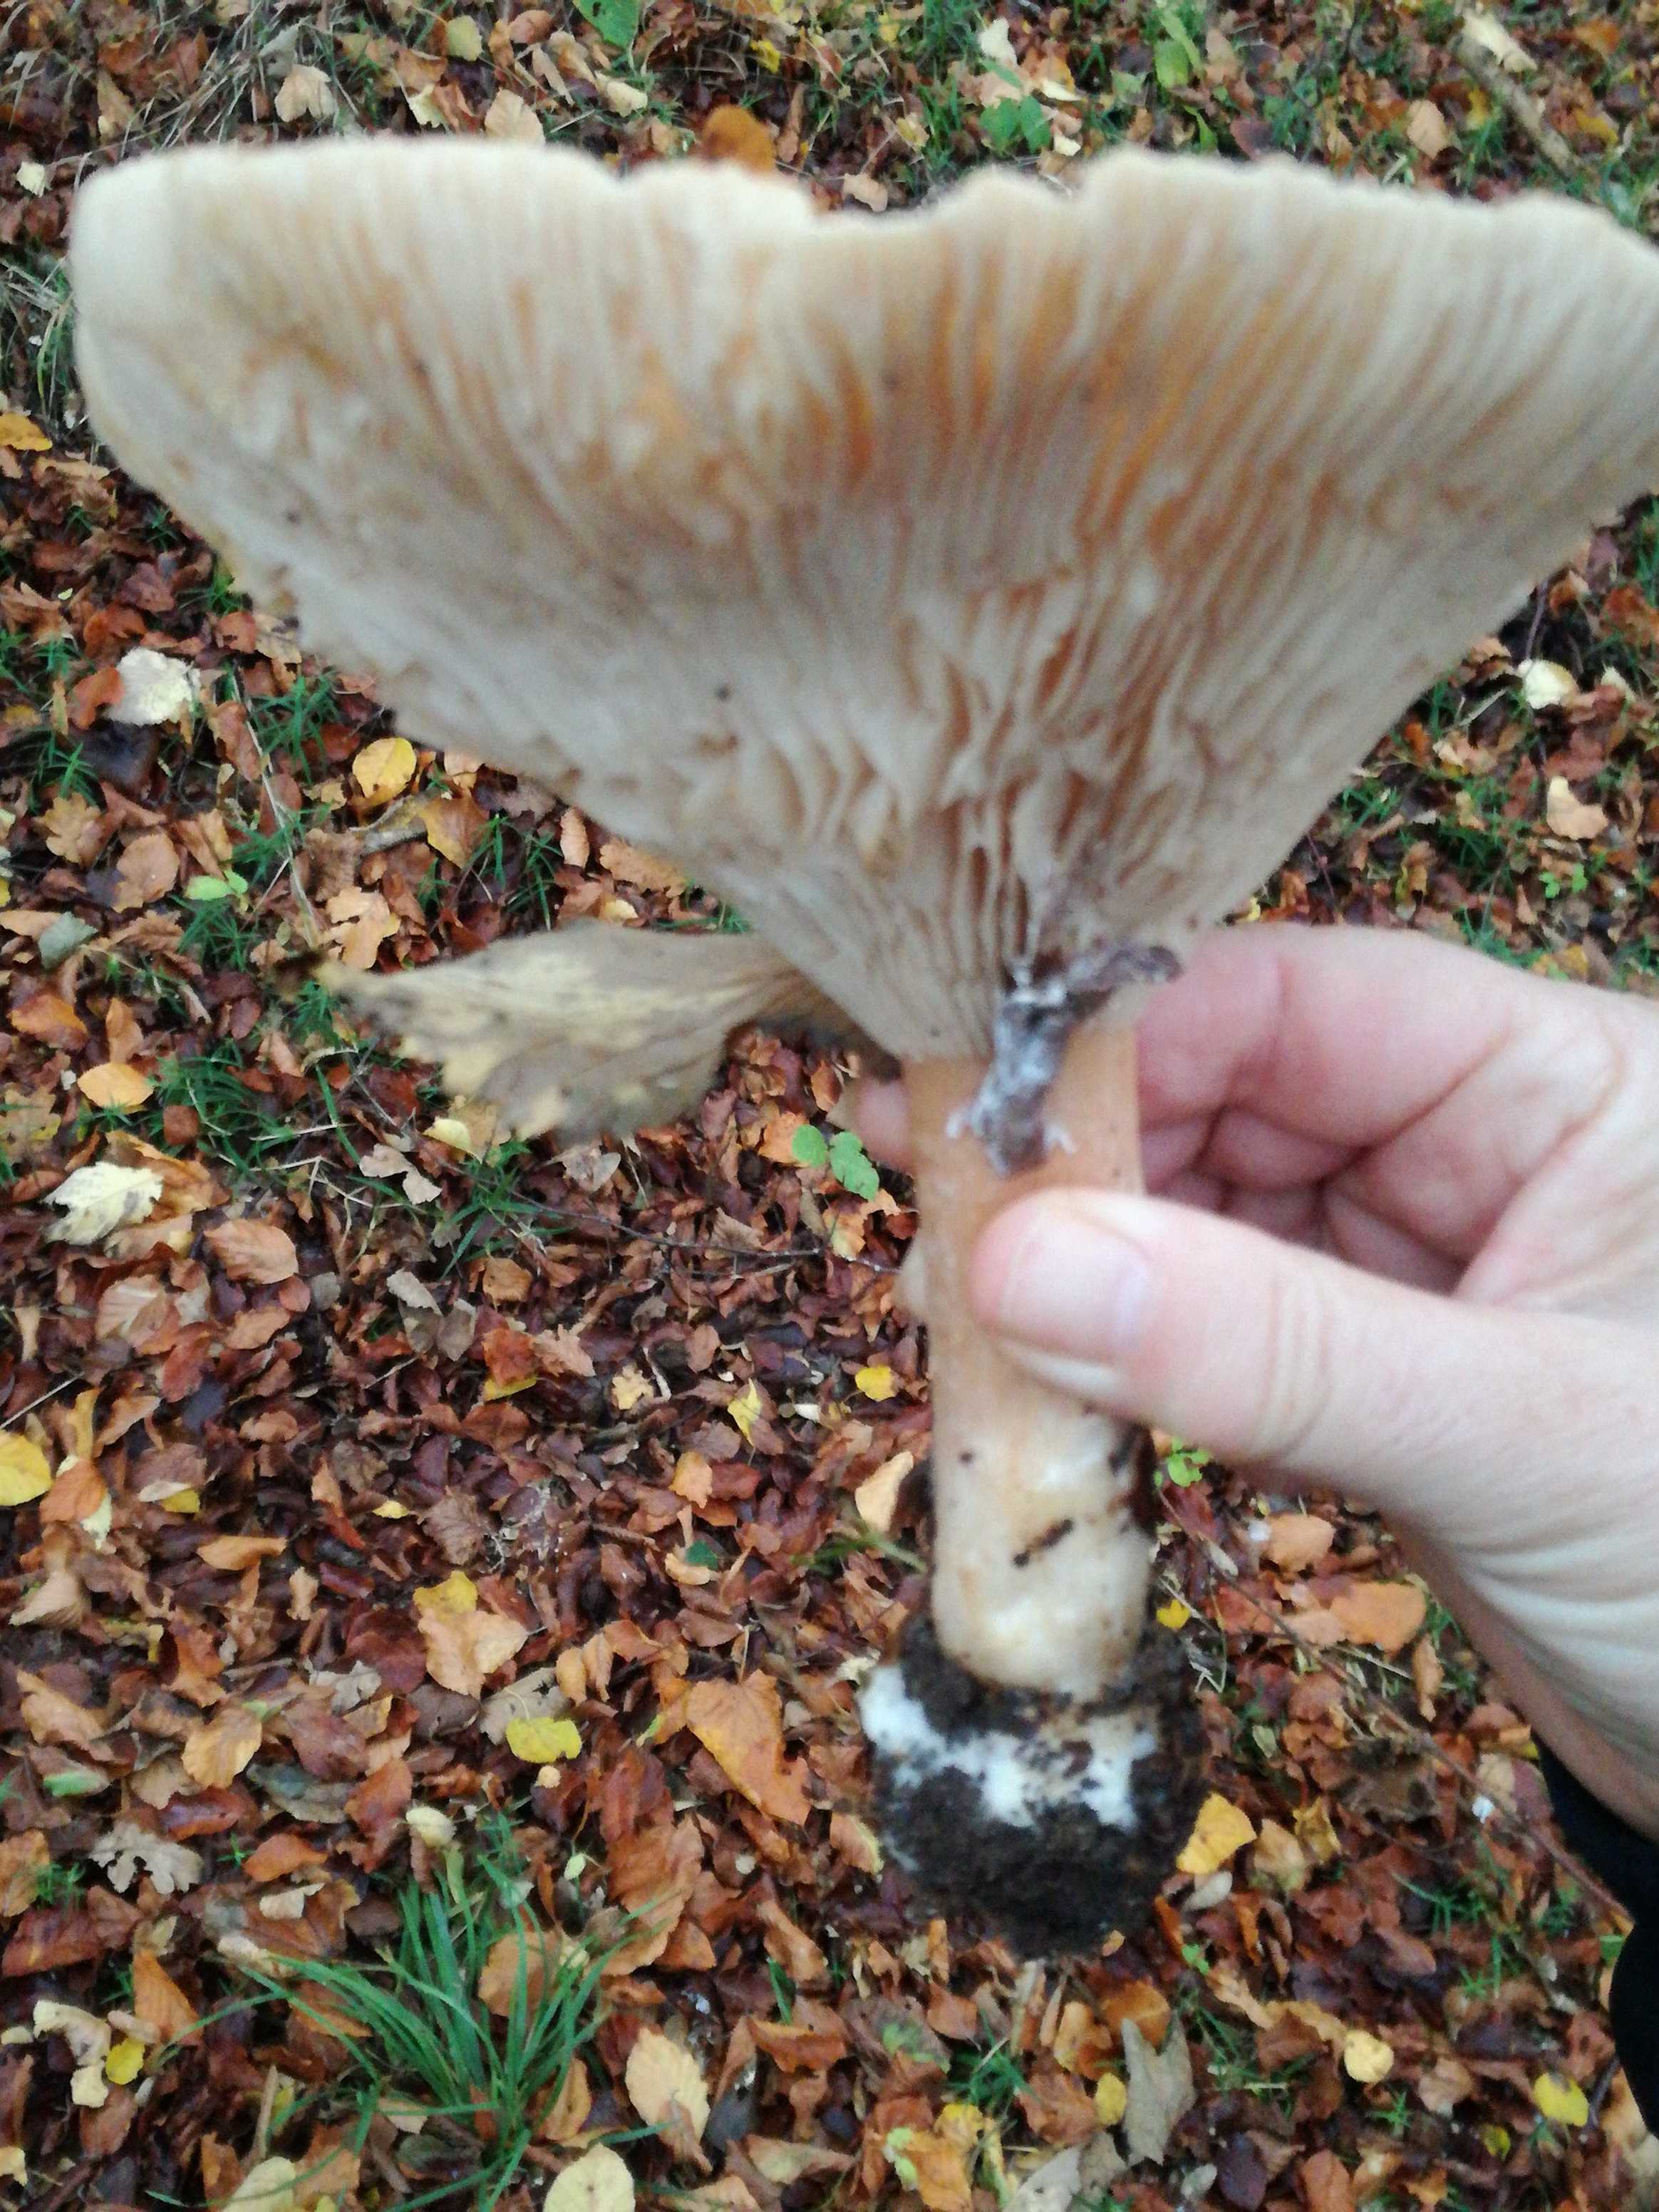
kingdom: Fungi
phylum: Basidiomycota
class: Agaricomycetes
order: Agaricales
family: Tricholomataceae
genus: Infundibulicybe
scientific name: Infundibulicybe geotropa
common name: stor tragthat
